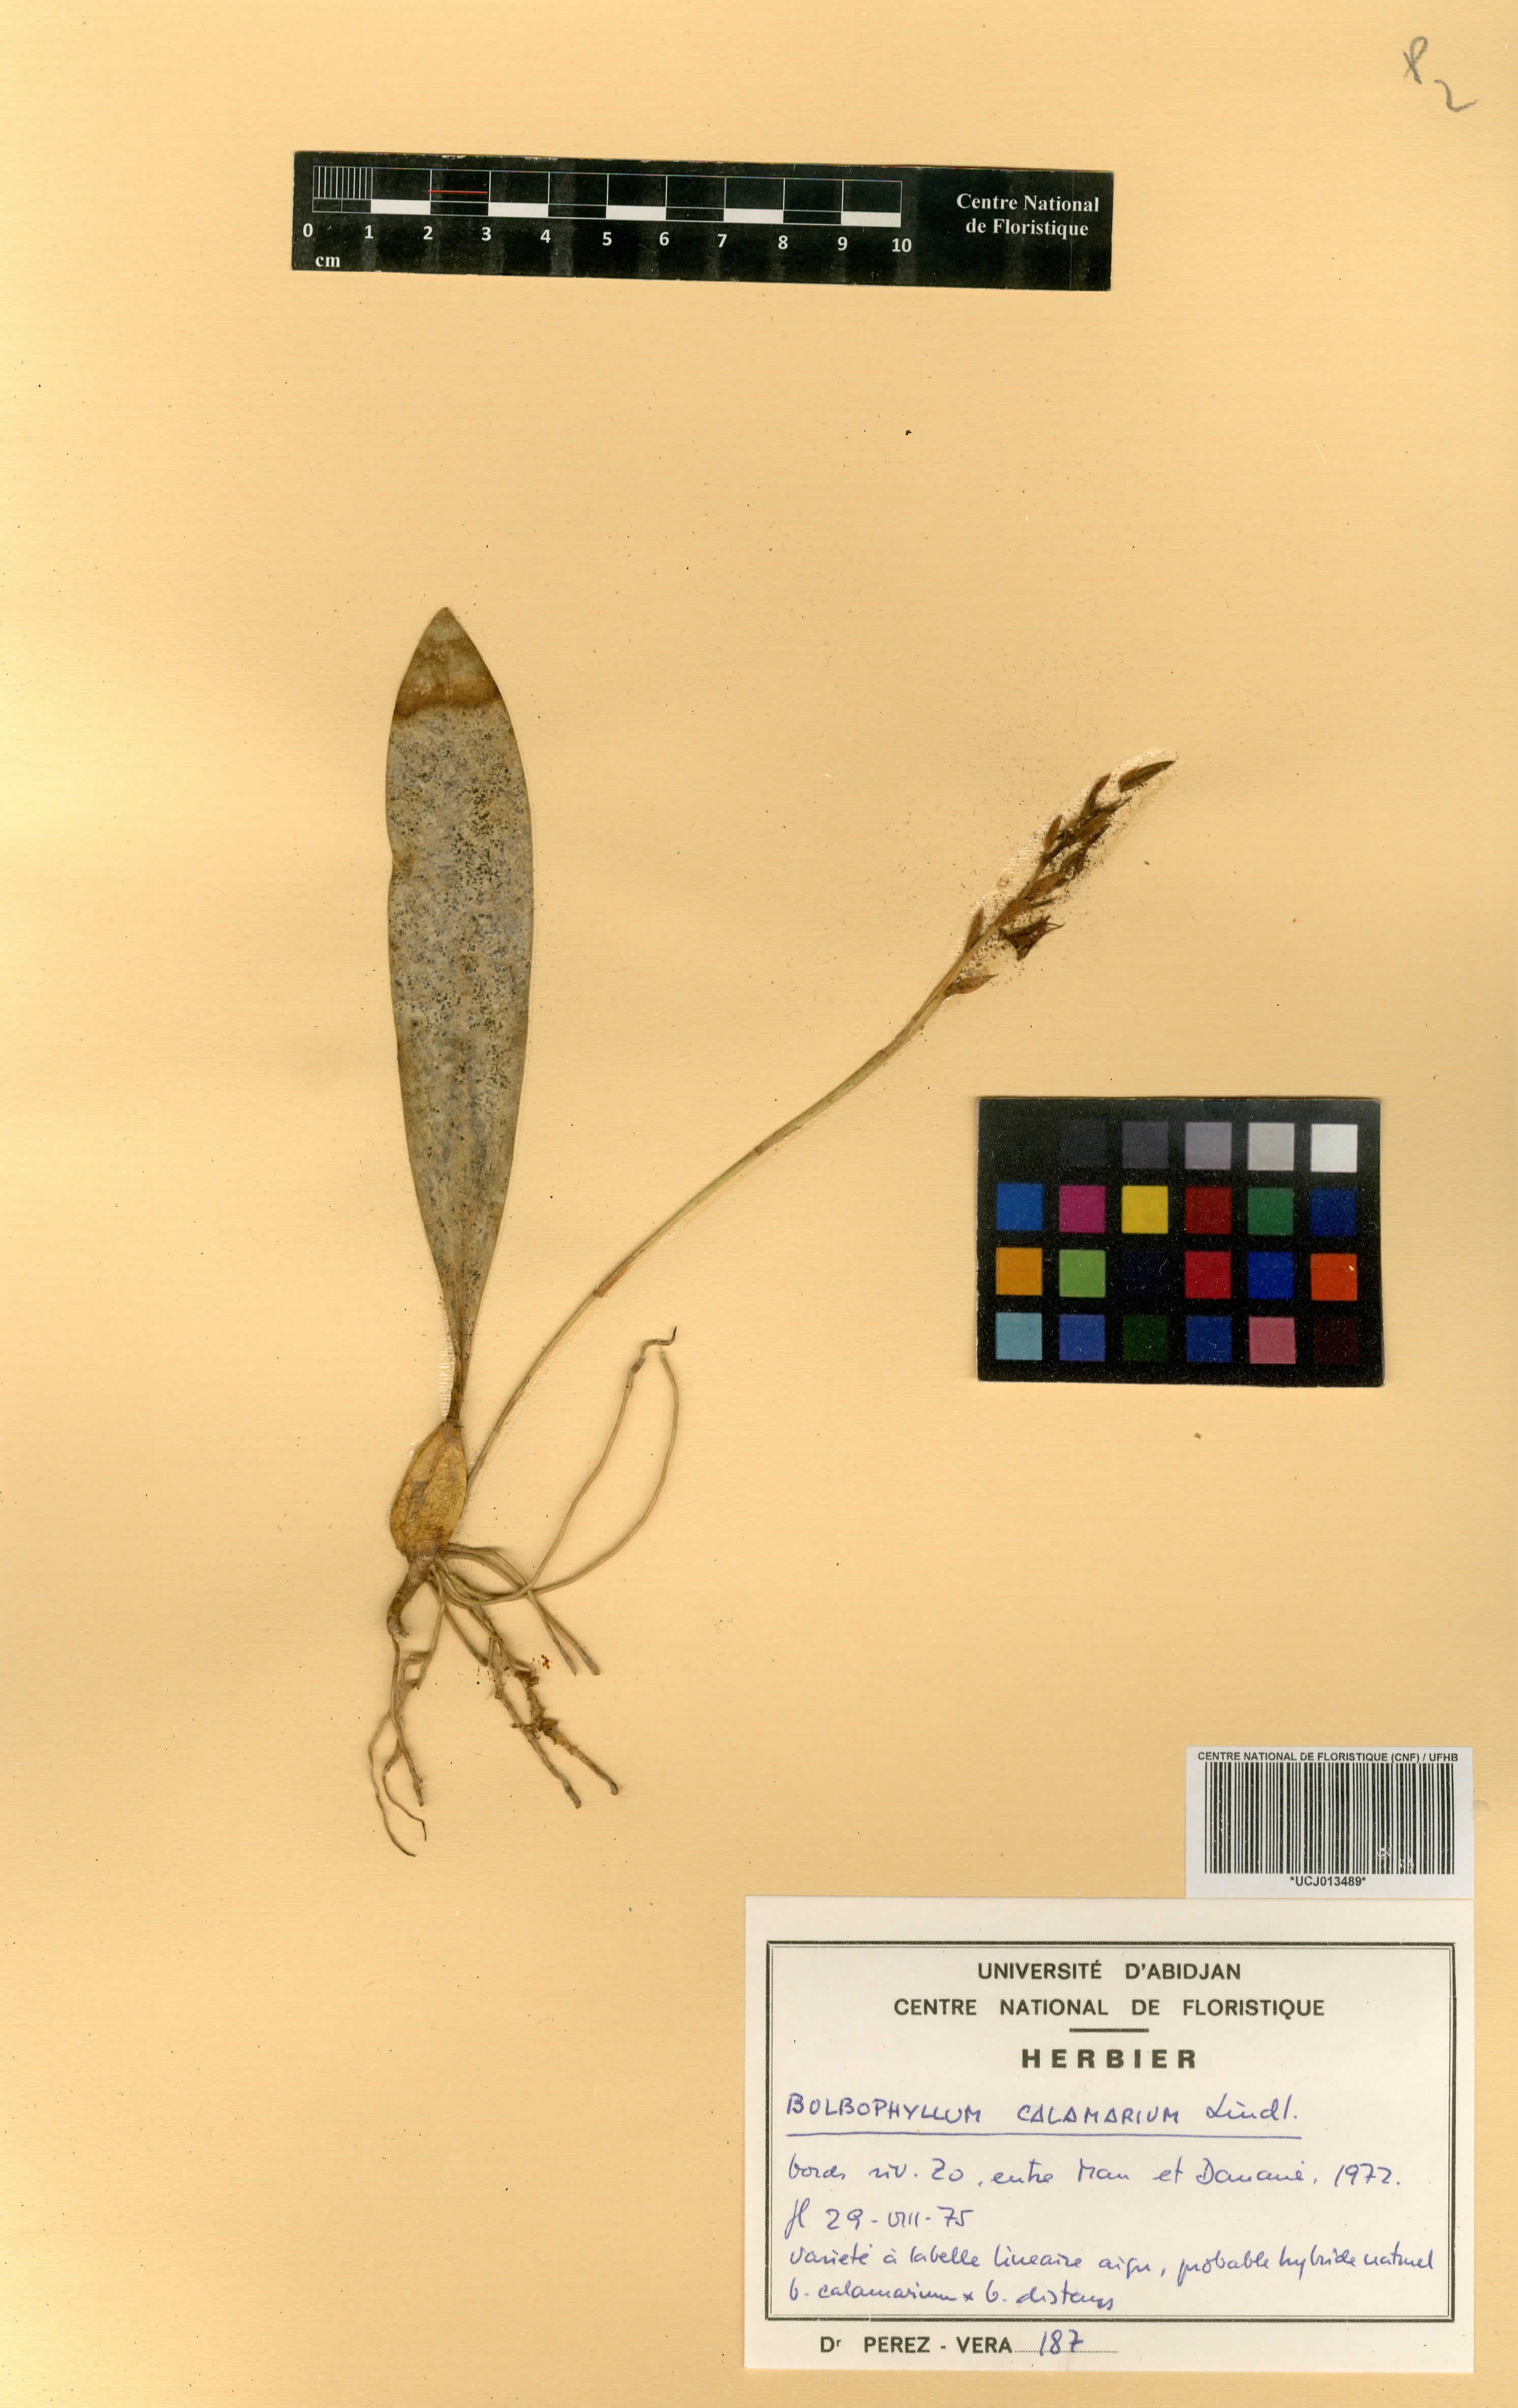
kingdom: Plantae
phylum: Tracheophyta
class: Liliopsida
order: Asparagales
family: Orchidaceae
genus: Bulbophyllum
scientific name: Bulbophyllum saltatorium
